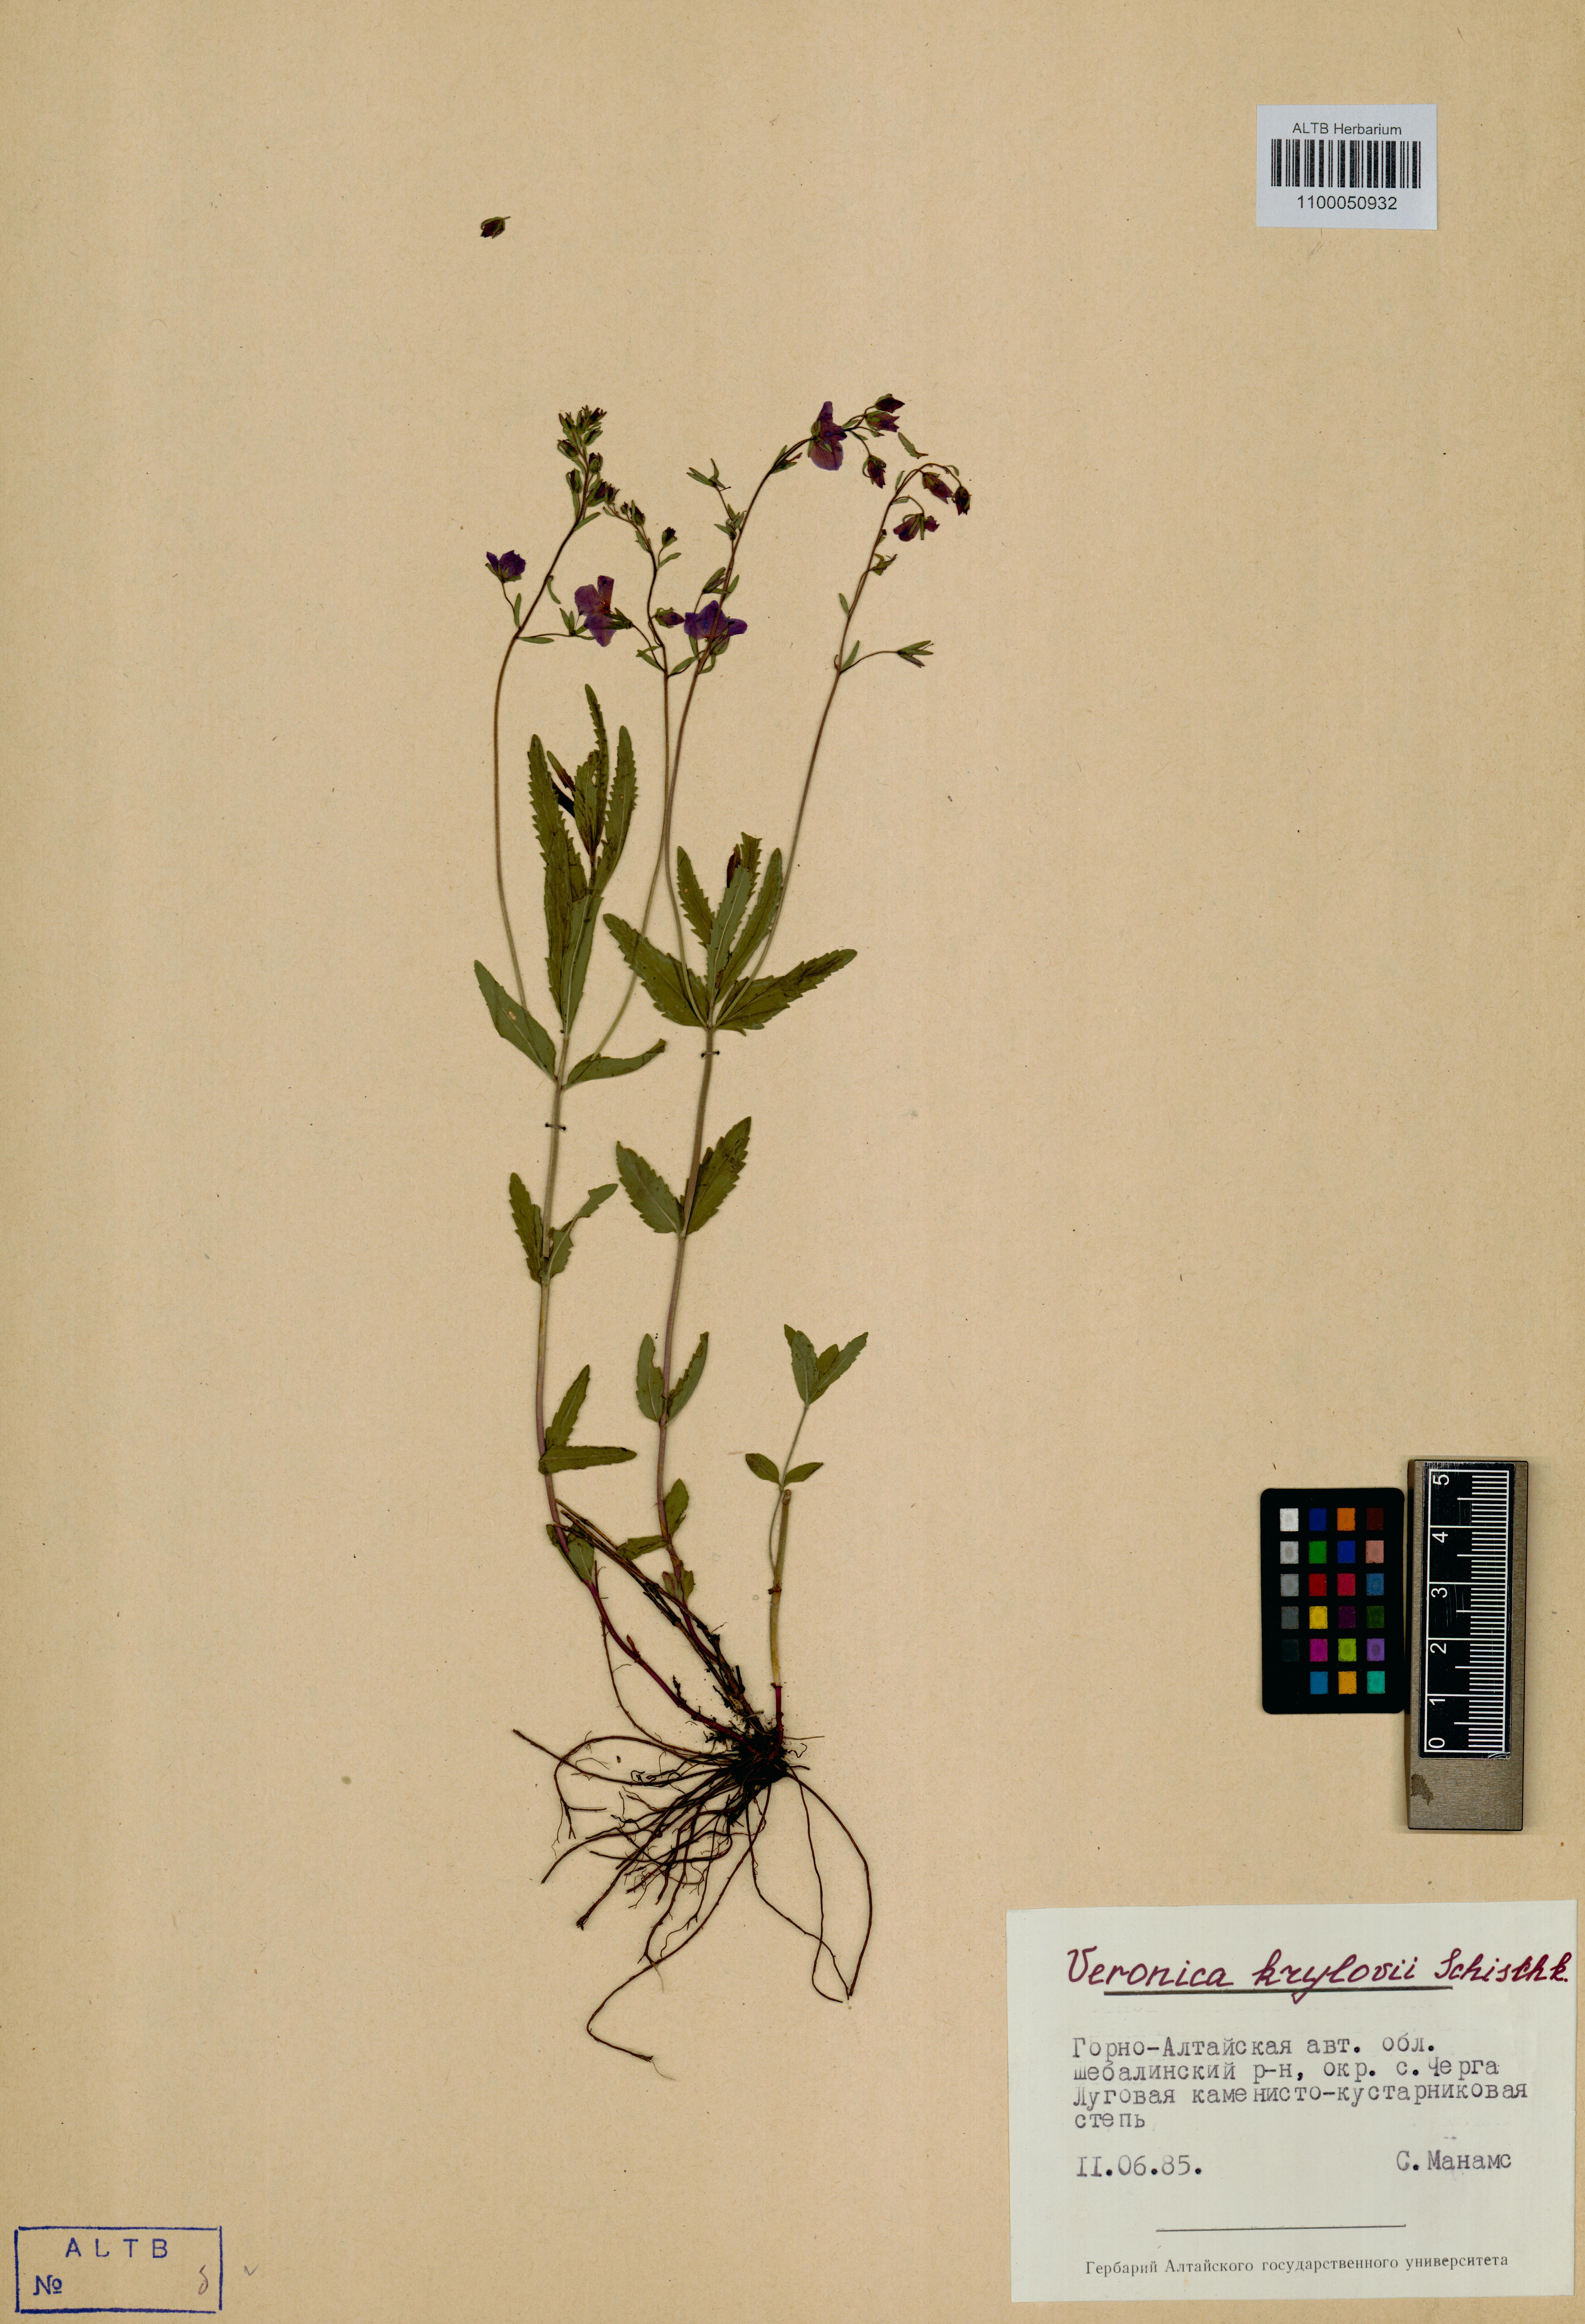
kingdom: Plantae
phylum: Tracheophyta
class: Magnoliopsida
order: Lamiales
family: Plantaginaceae
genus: Veronica
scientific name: Veronica krylovii
